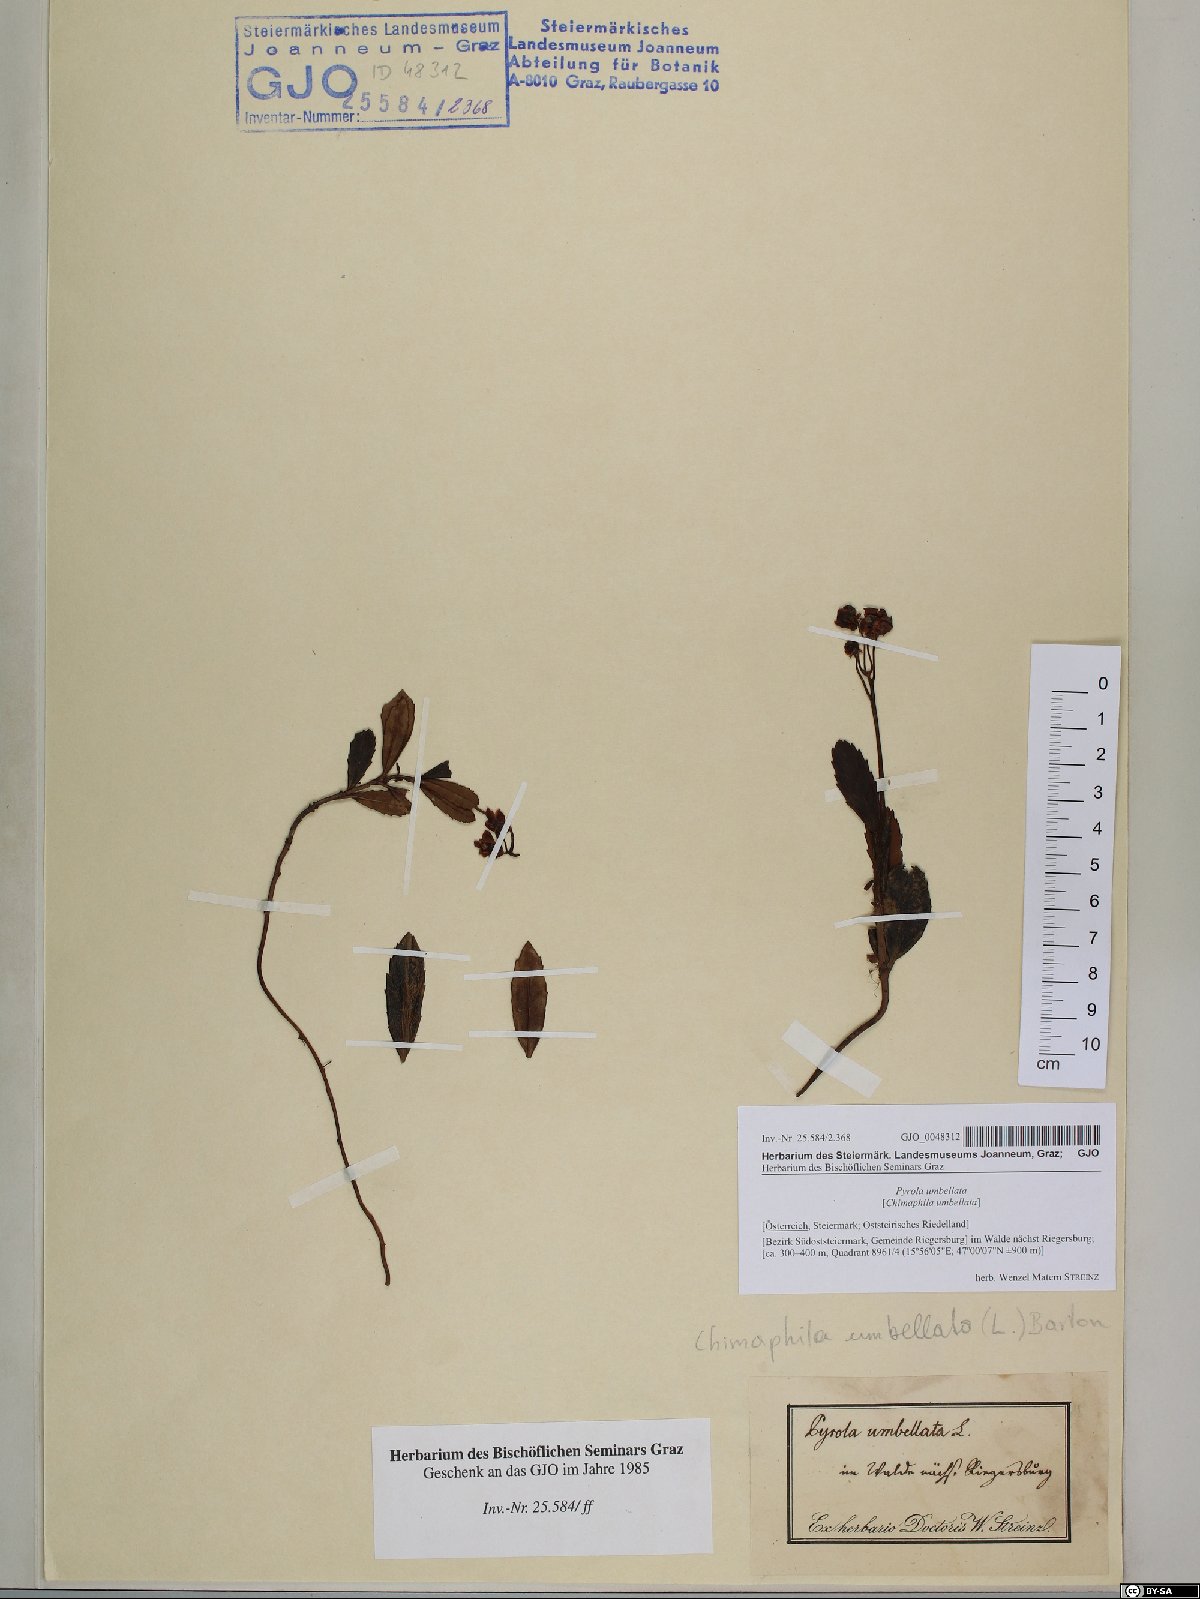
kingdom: Plantae
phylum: Tracheophyta
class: Magnoliopsida
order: Ericales
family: Ericaceae
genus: Chimaphila
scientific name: Chimaphila umbellata
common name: Pipsissewa
